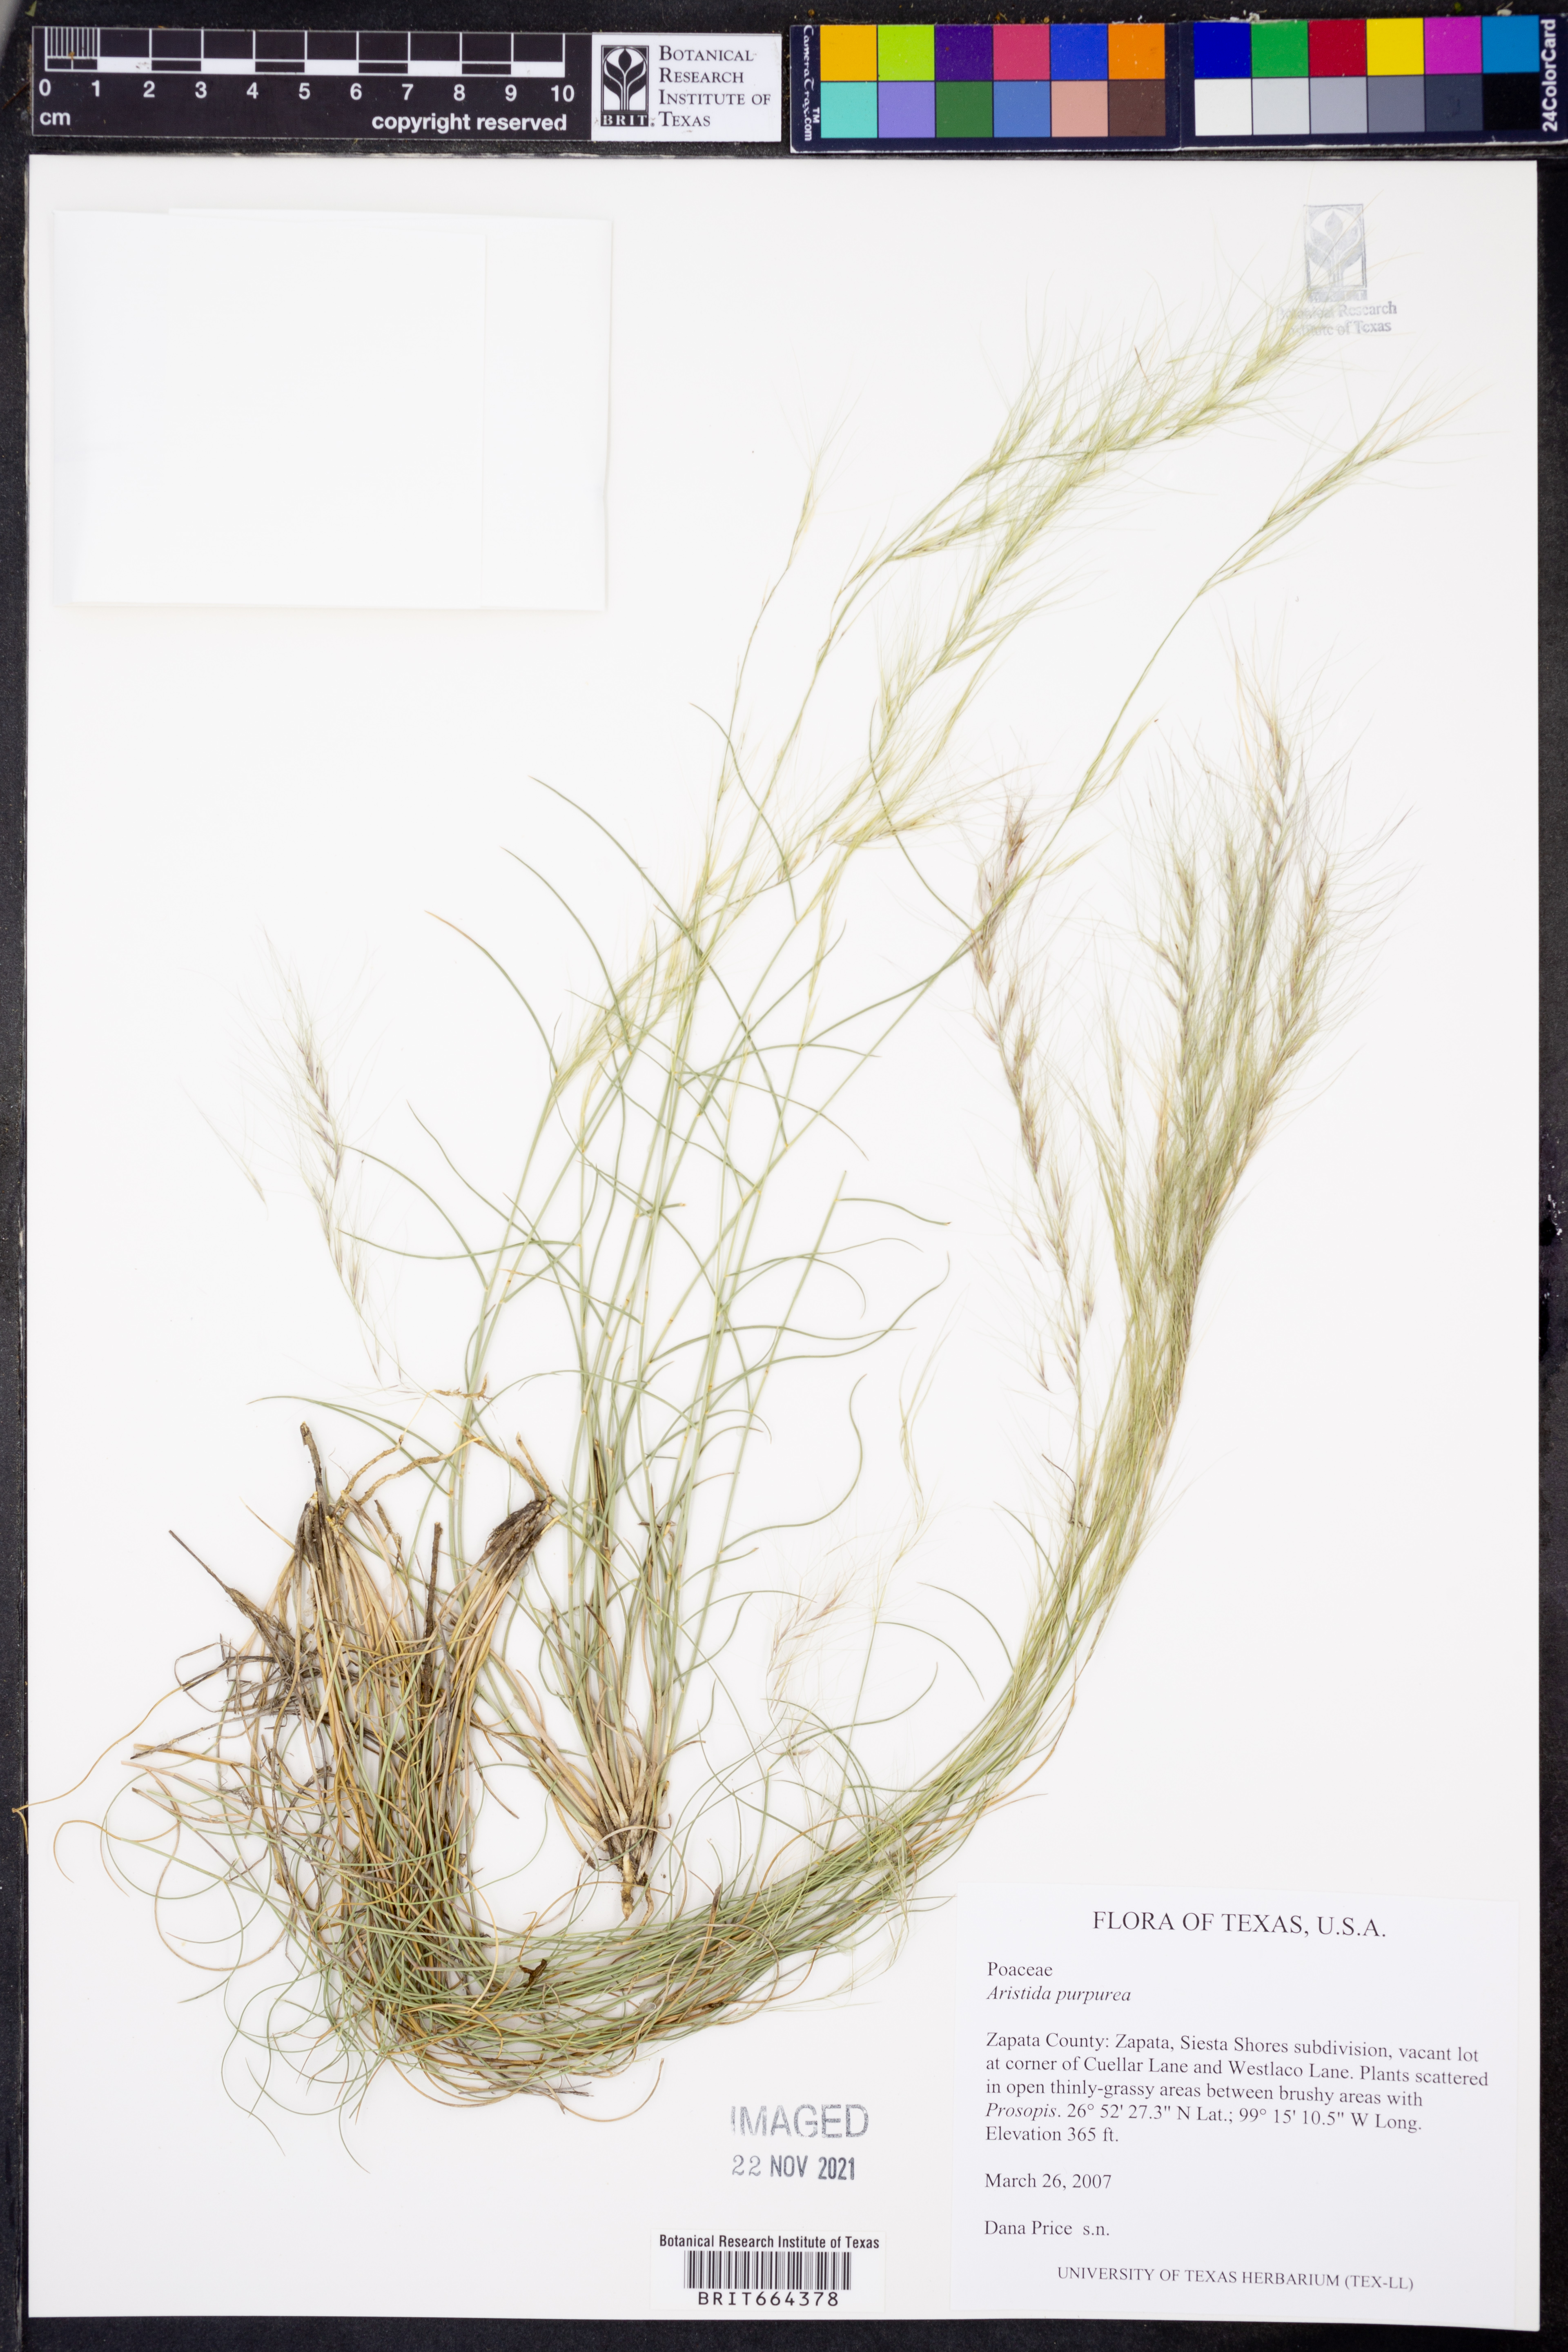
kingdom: Plantae
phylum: Tracheophyta
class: Liliopsida
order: Poales
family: Poaceae
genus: Aristida
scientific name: Aristida purpurea
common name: Purple threeawn
